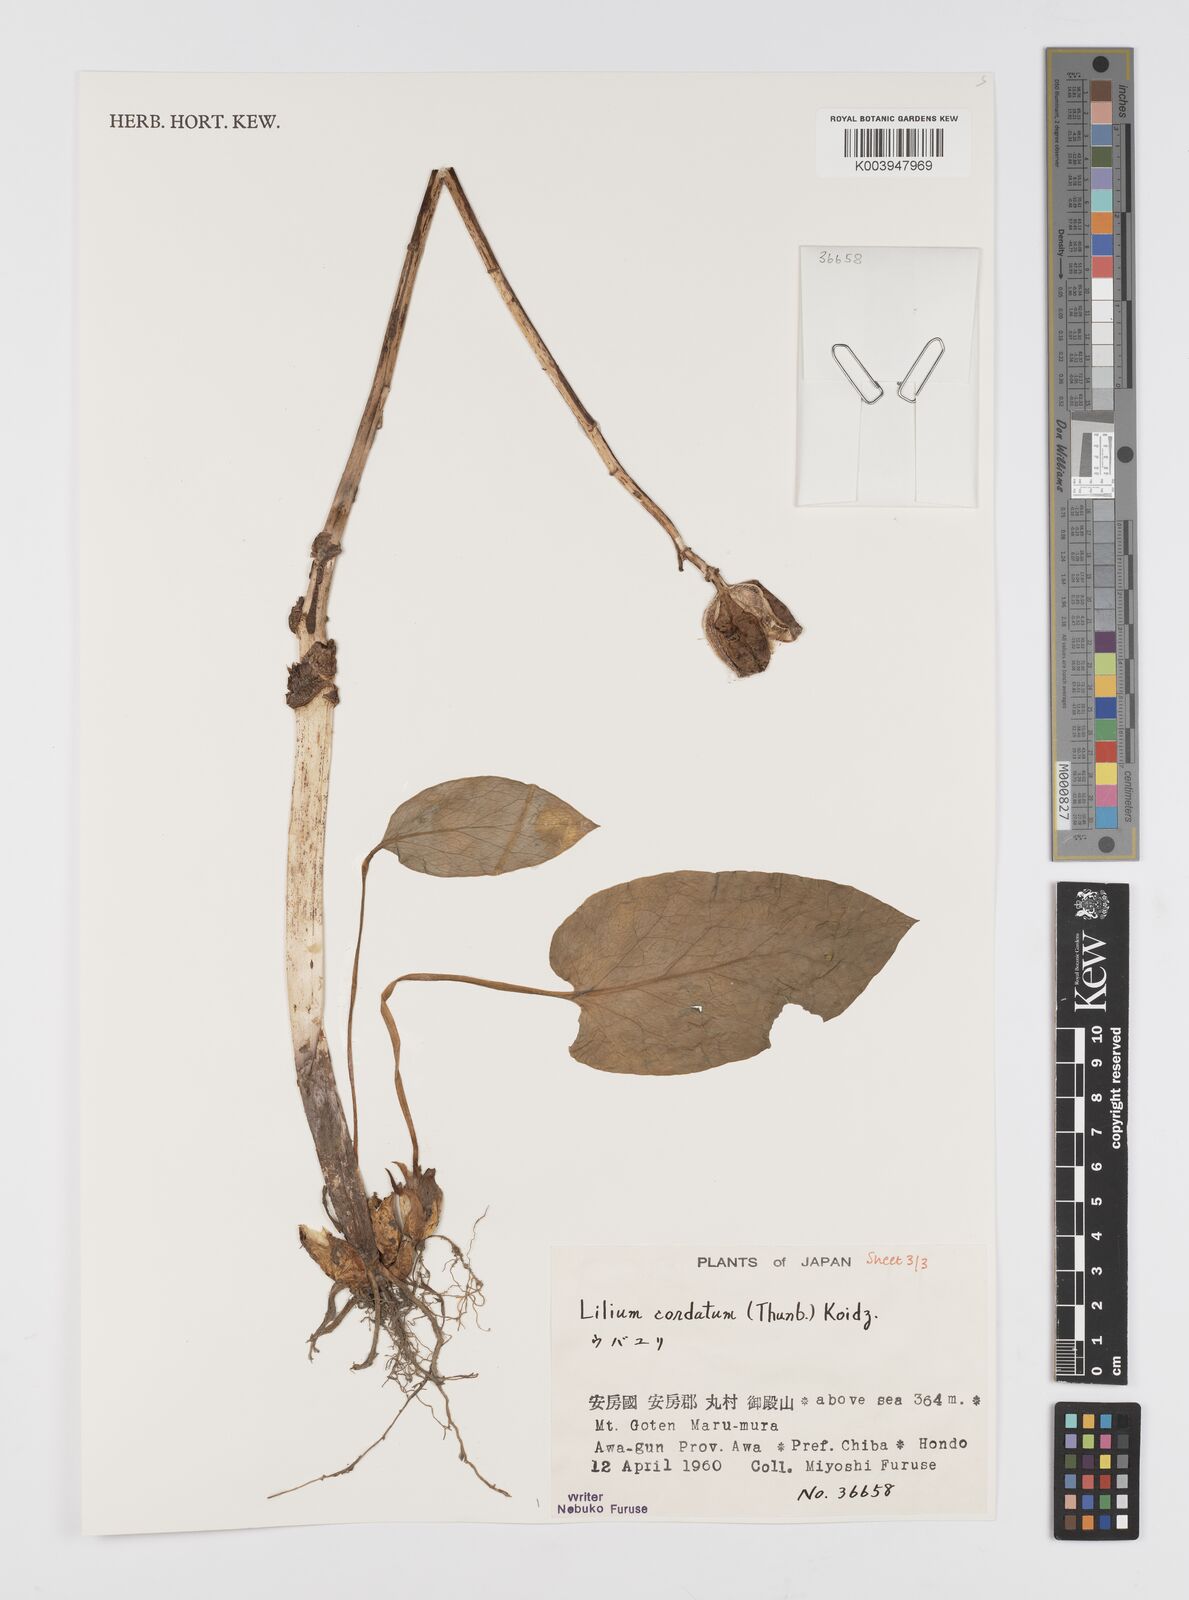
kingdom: Plantae
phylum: Tracheophyta
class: Liliopsida
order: Liliales
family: Liliaceae
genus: Cardiocrinum
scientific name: Cardiocrinum cordatum
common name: Lily
